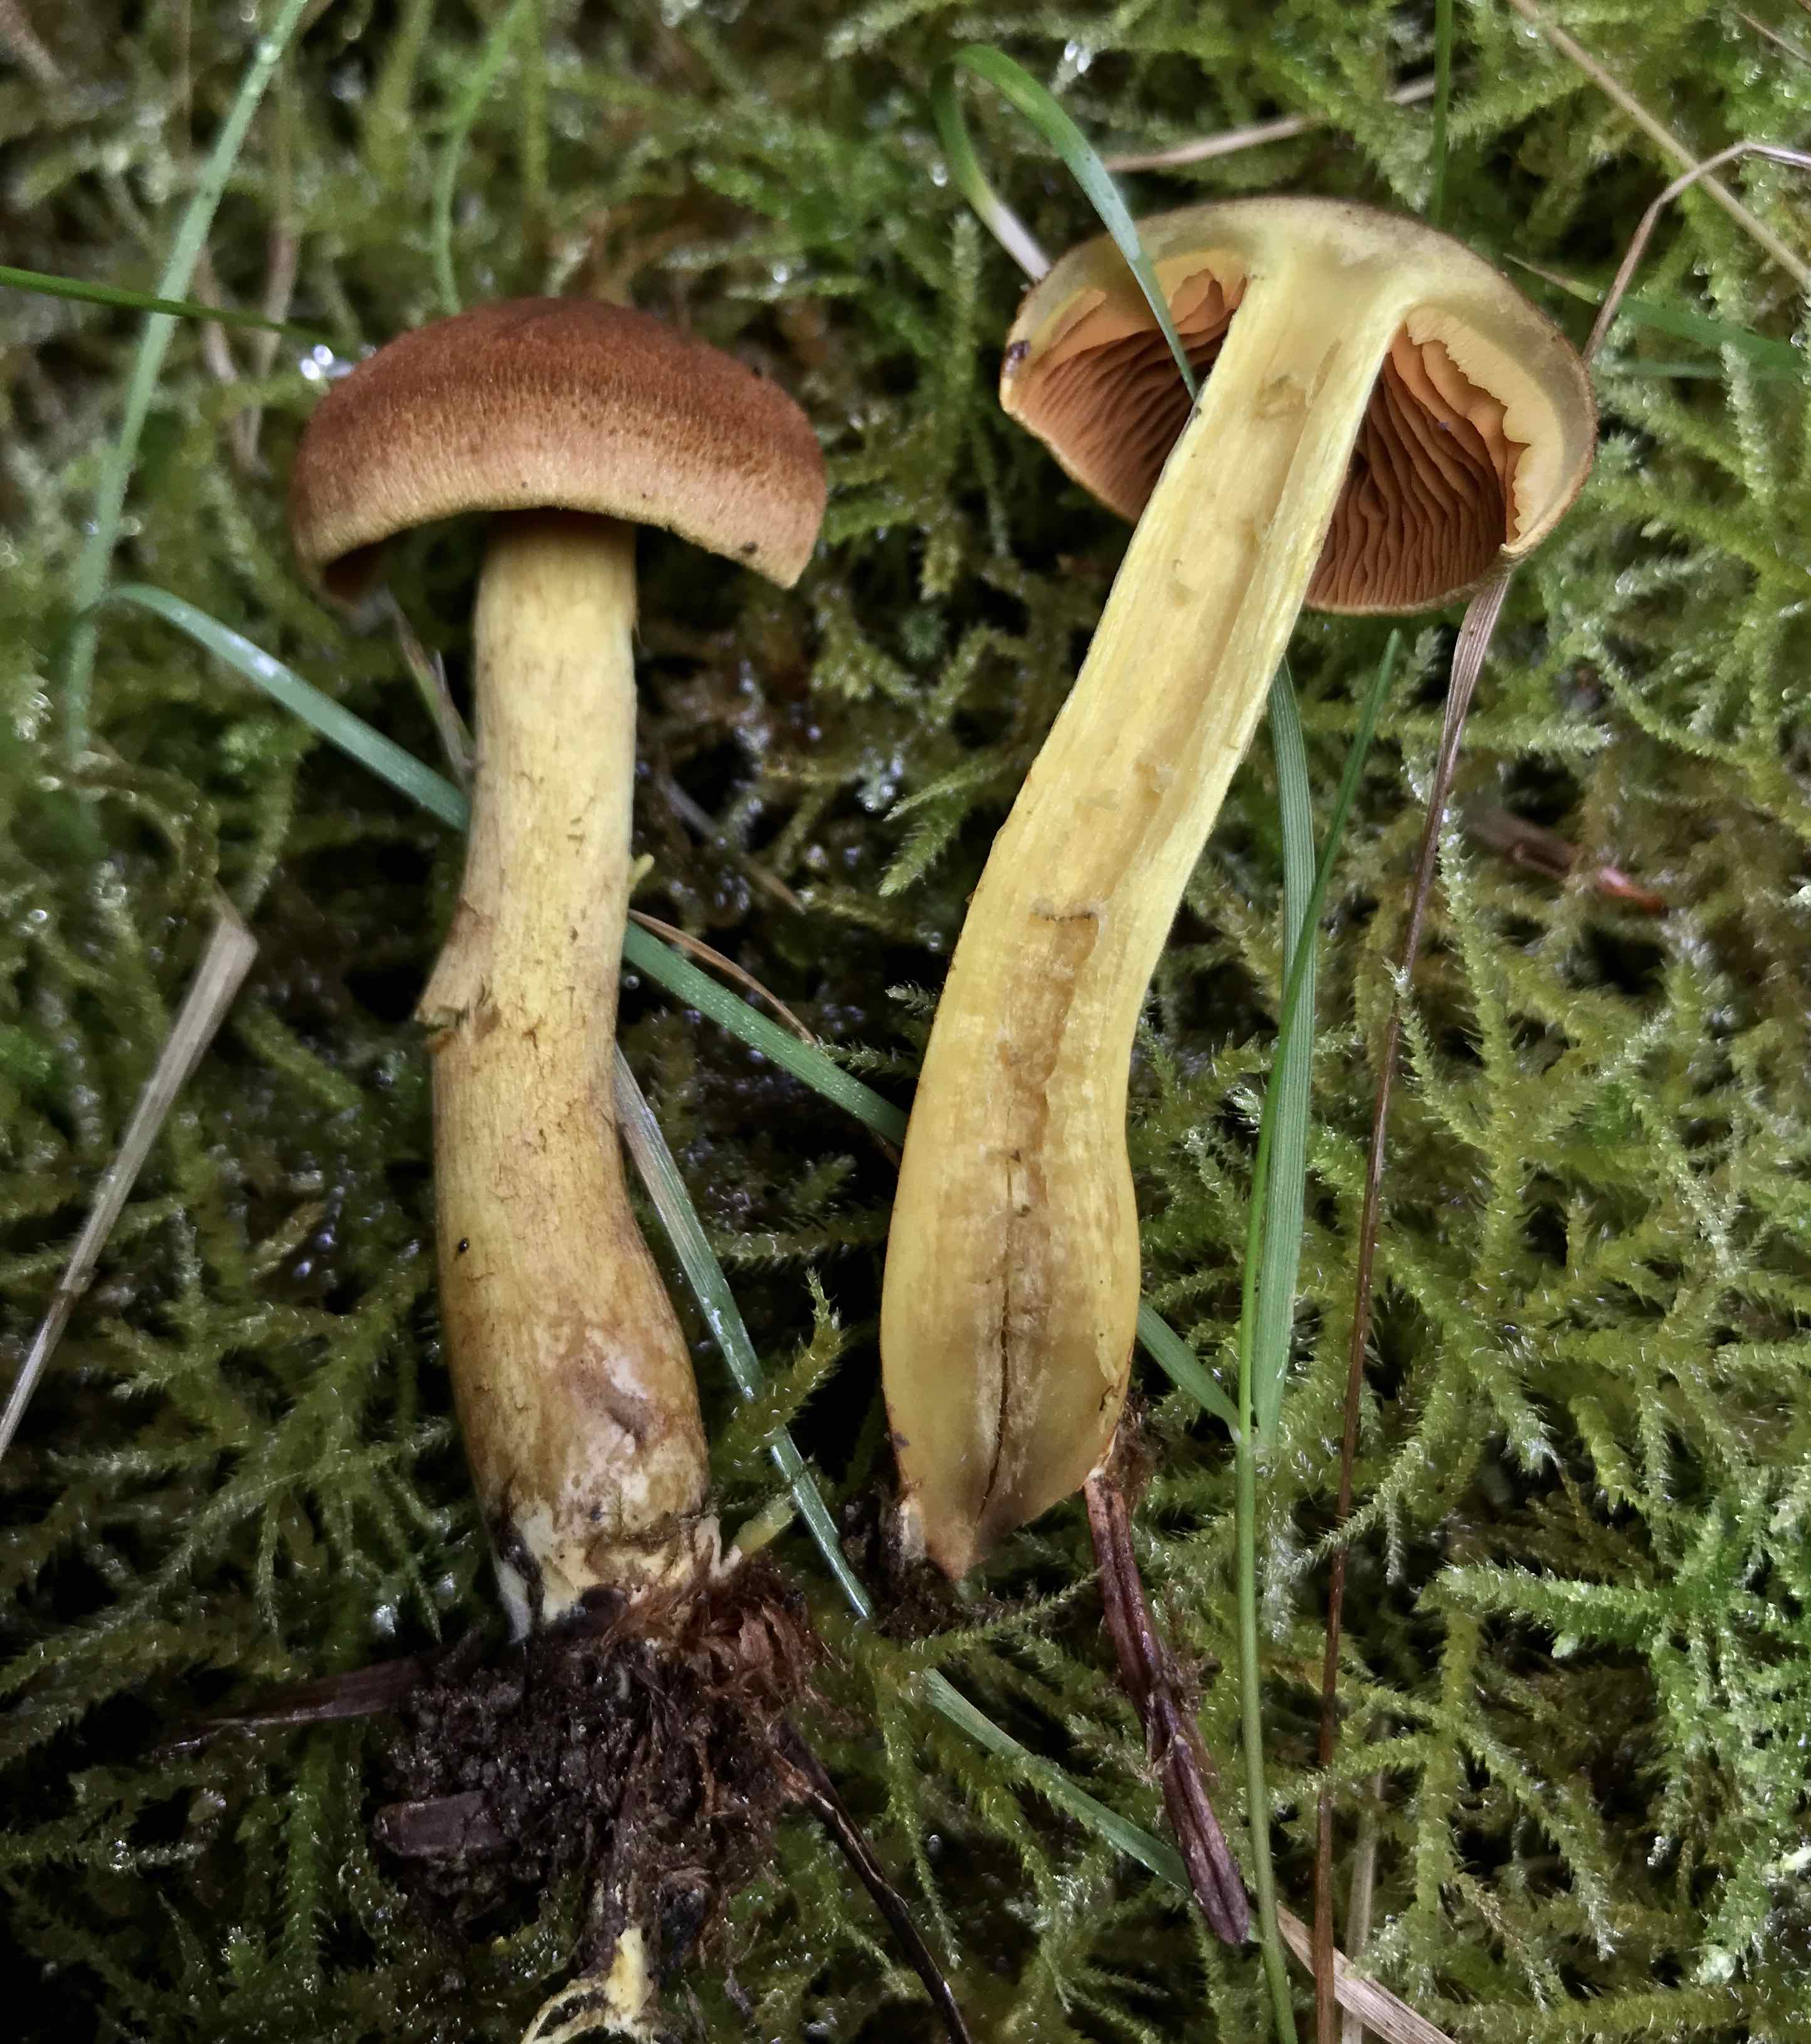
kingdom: Fungi
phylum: Basidiomycota
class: Agaricomycetes
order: Agaricales
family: Cortinariaceae
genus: Cortinarius
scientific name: Cortinarius malicorius
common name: grønkødet slørhat
